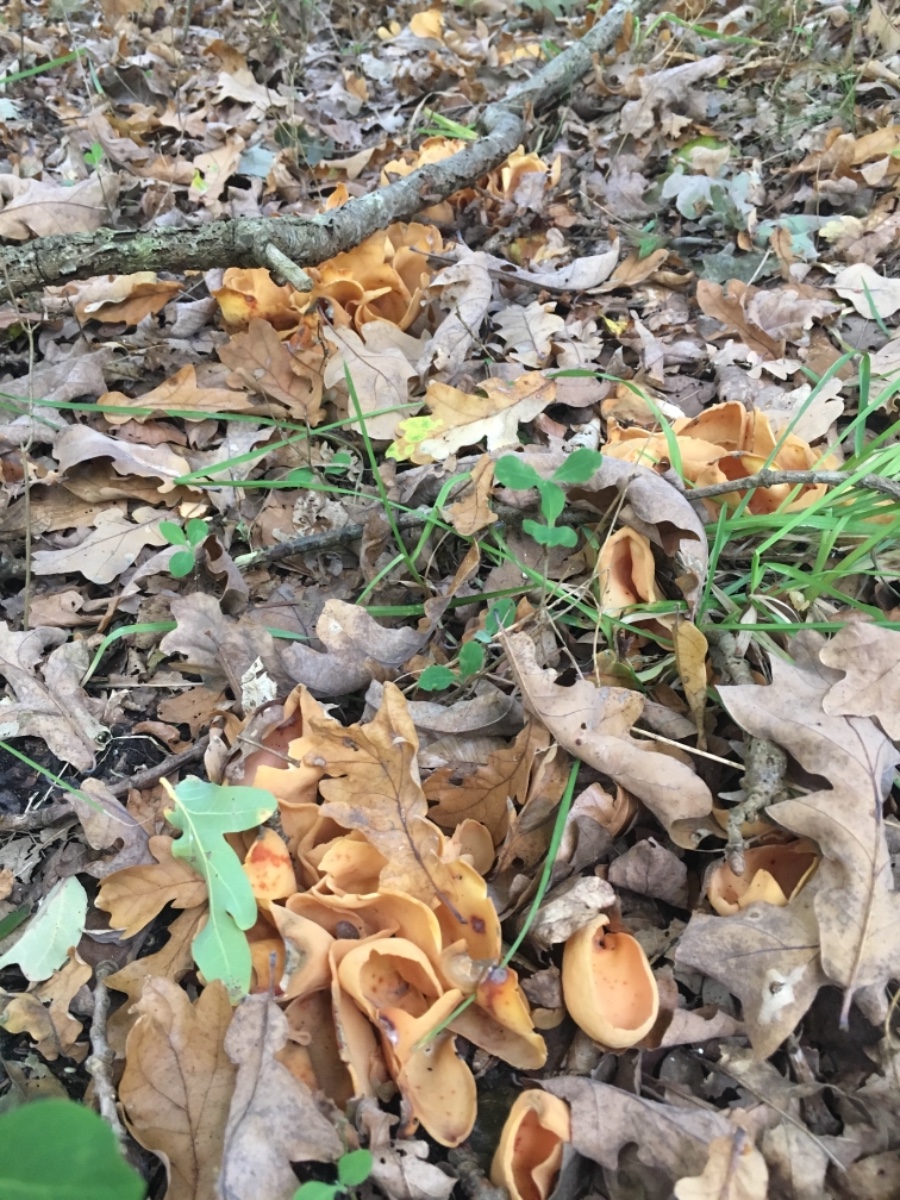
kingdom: Fungi
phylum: Ascomycota
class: Pezizomycetes
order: Pezizales
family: Otideaceae
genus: Otidea
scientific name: Otidea onotica
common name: æsel-ørebæger
